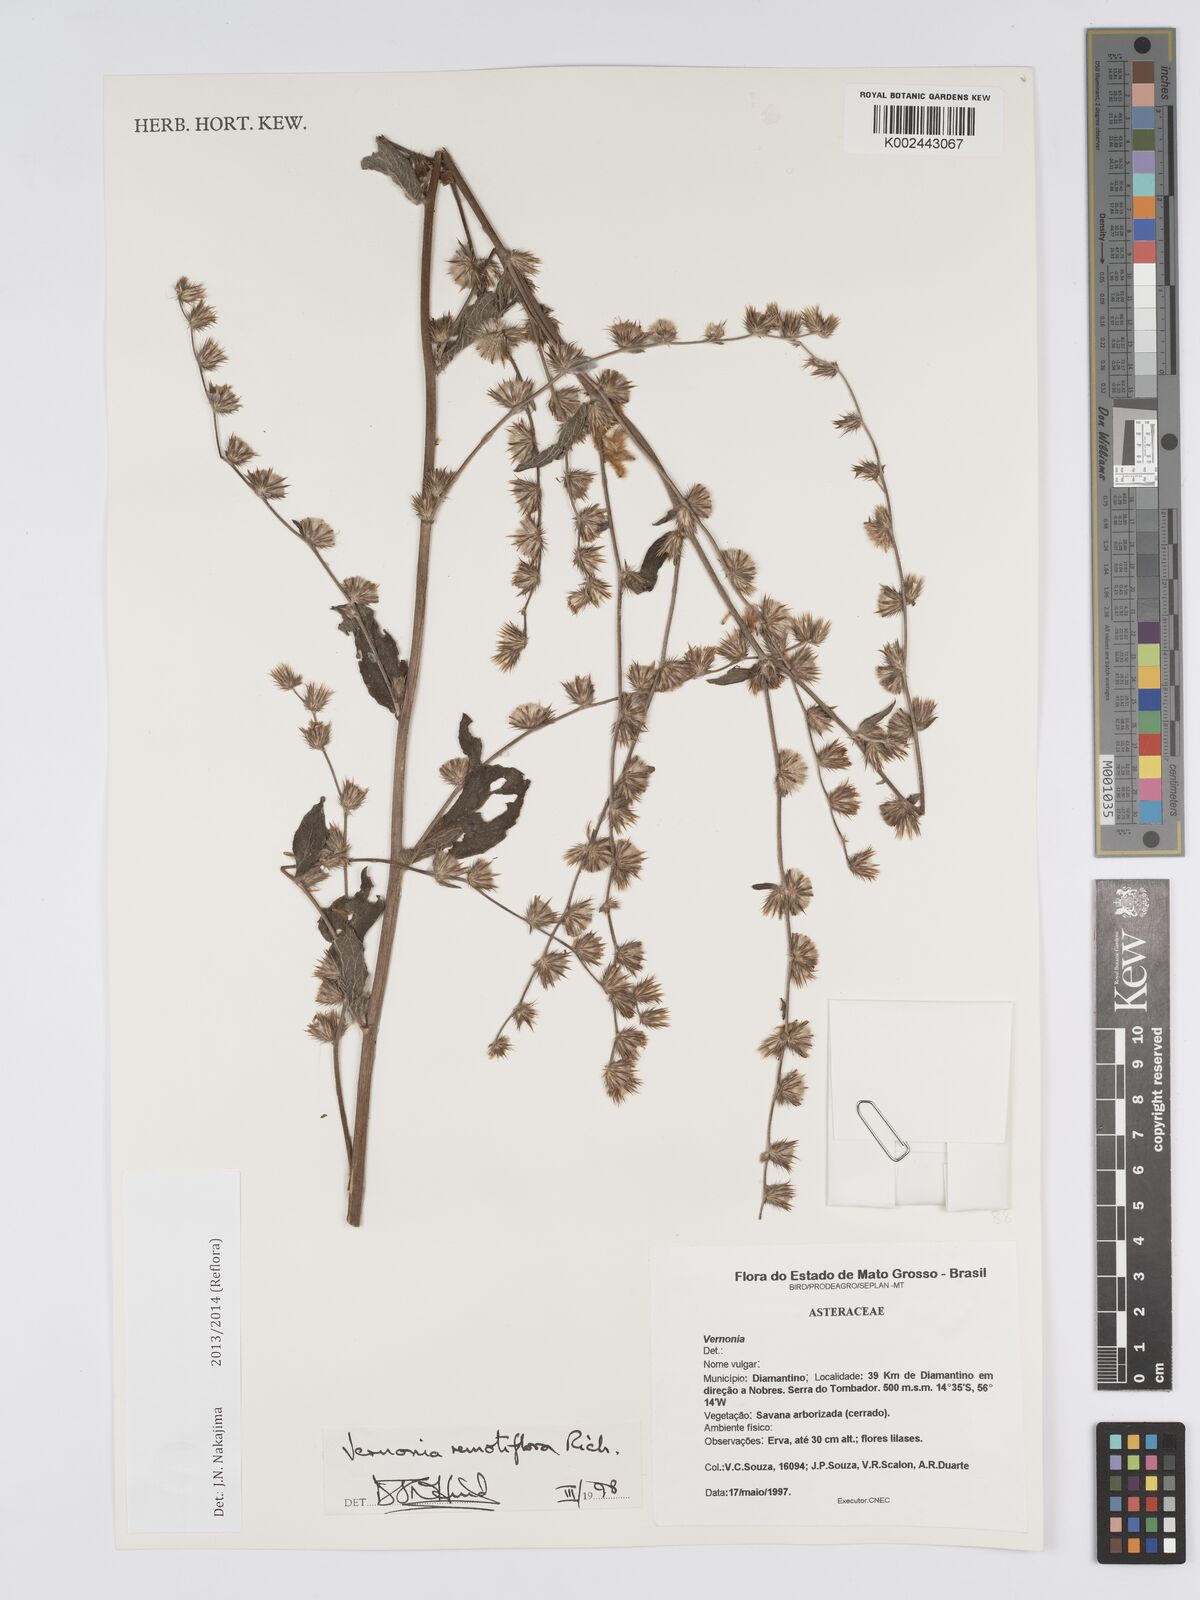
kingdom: Plantae
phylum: Tracheophyta
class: Magnoliopsida
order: Asterales
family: Asteraceae
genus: Lepidaploa
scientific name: Lepidaploa remotiflora
